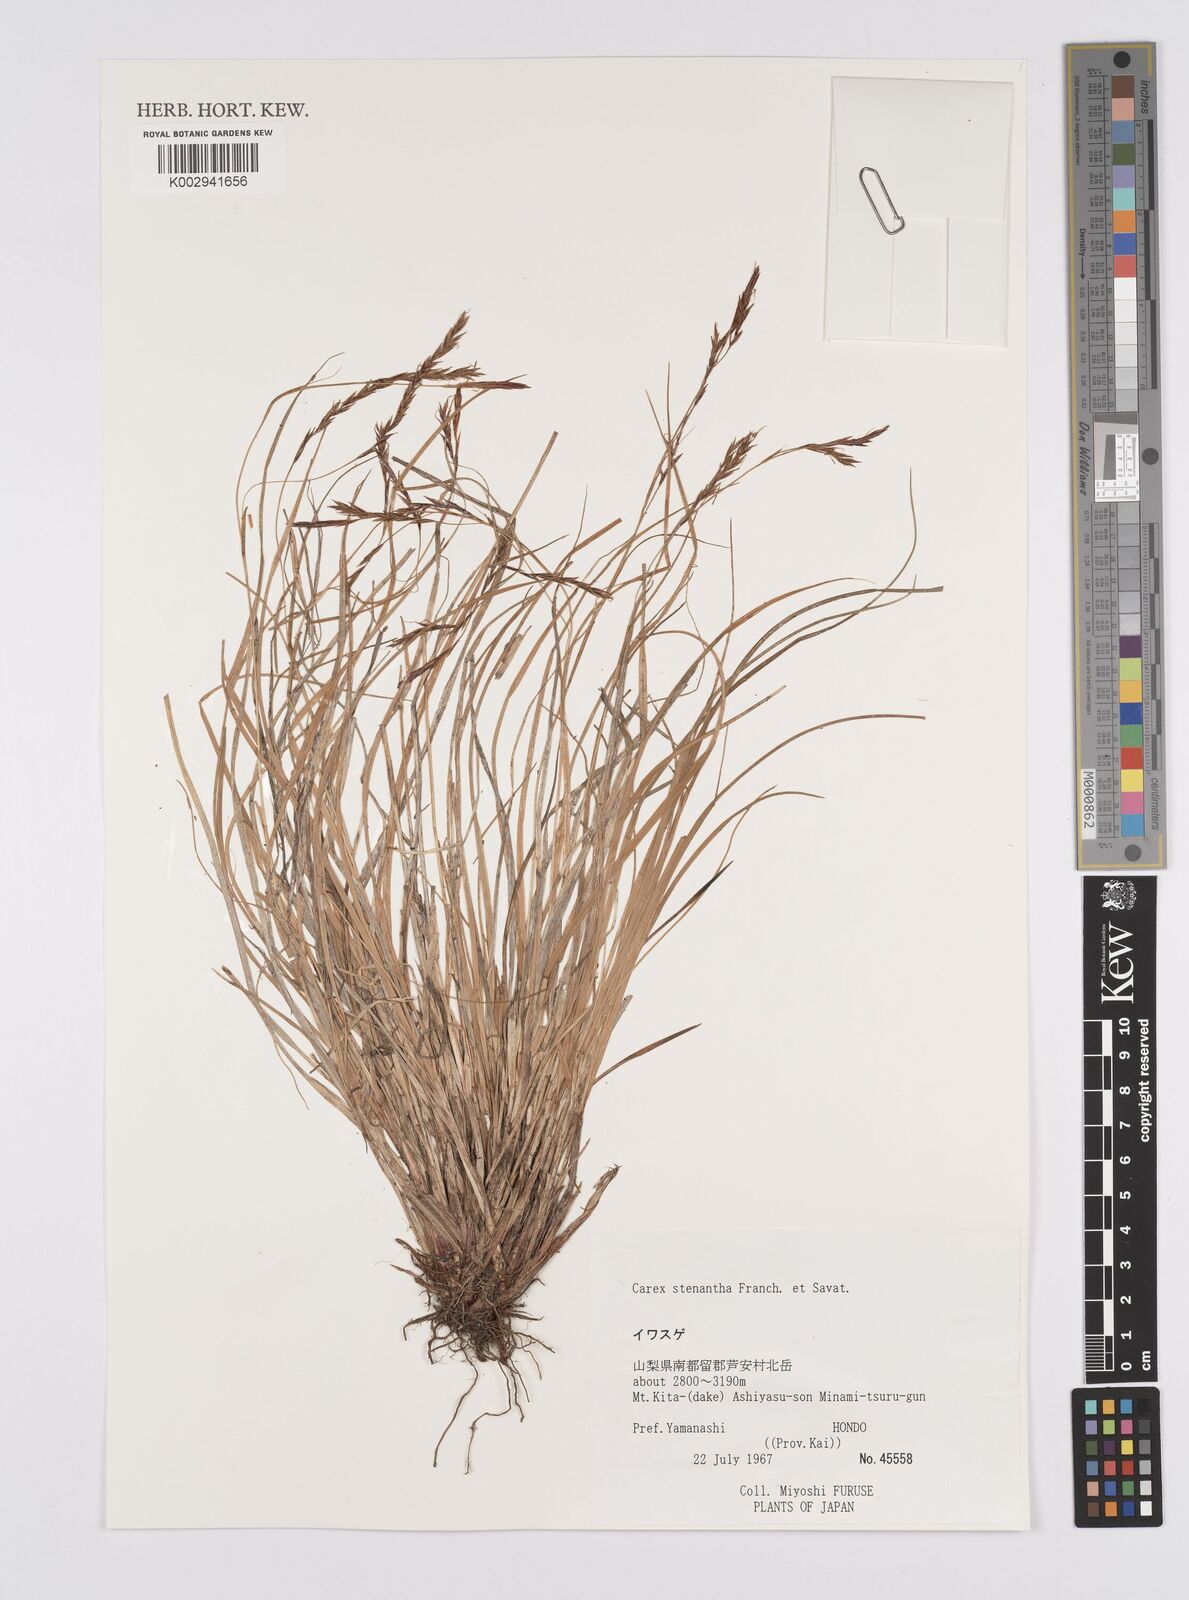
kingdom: Plantae
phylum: Tracheophyta
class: Liliopsida
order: Poales
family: Cyperaceae
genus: Carex
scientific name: Carex stenantha
